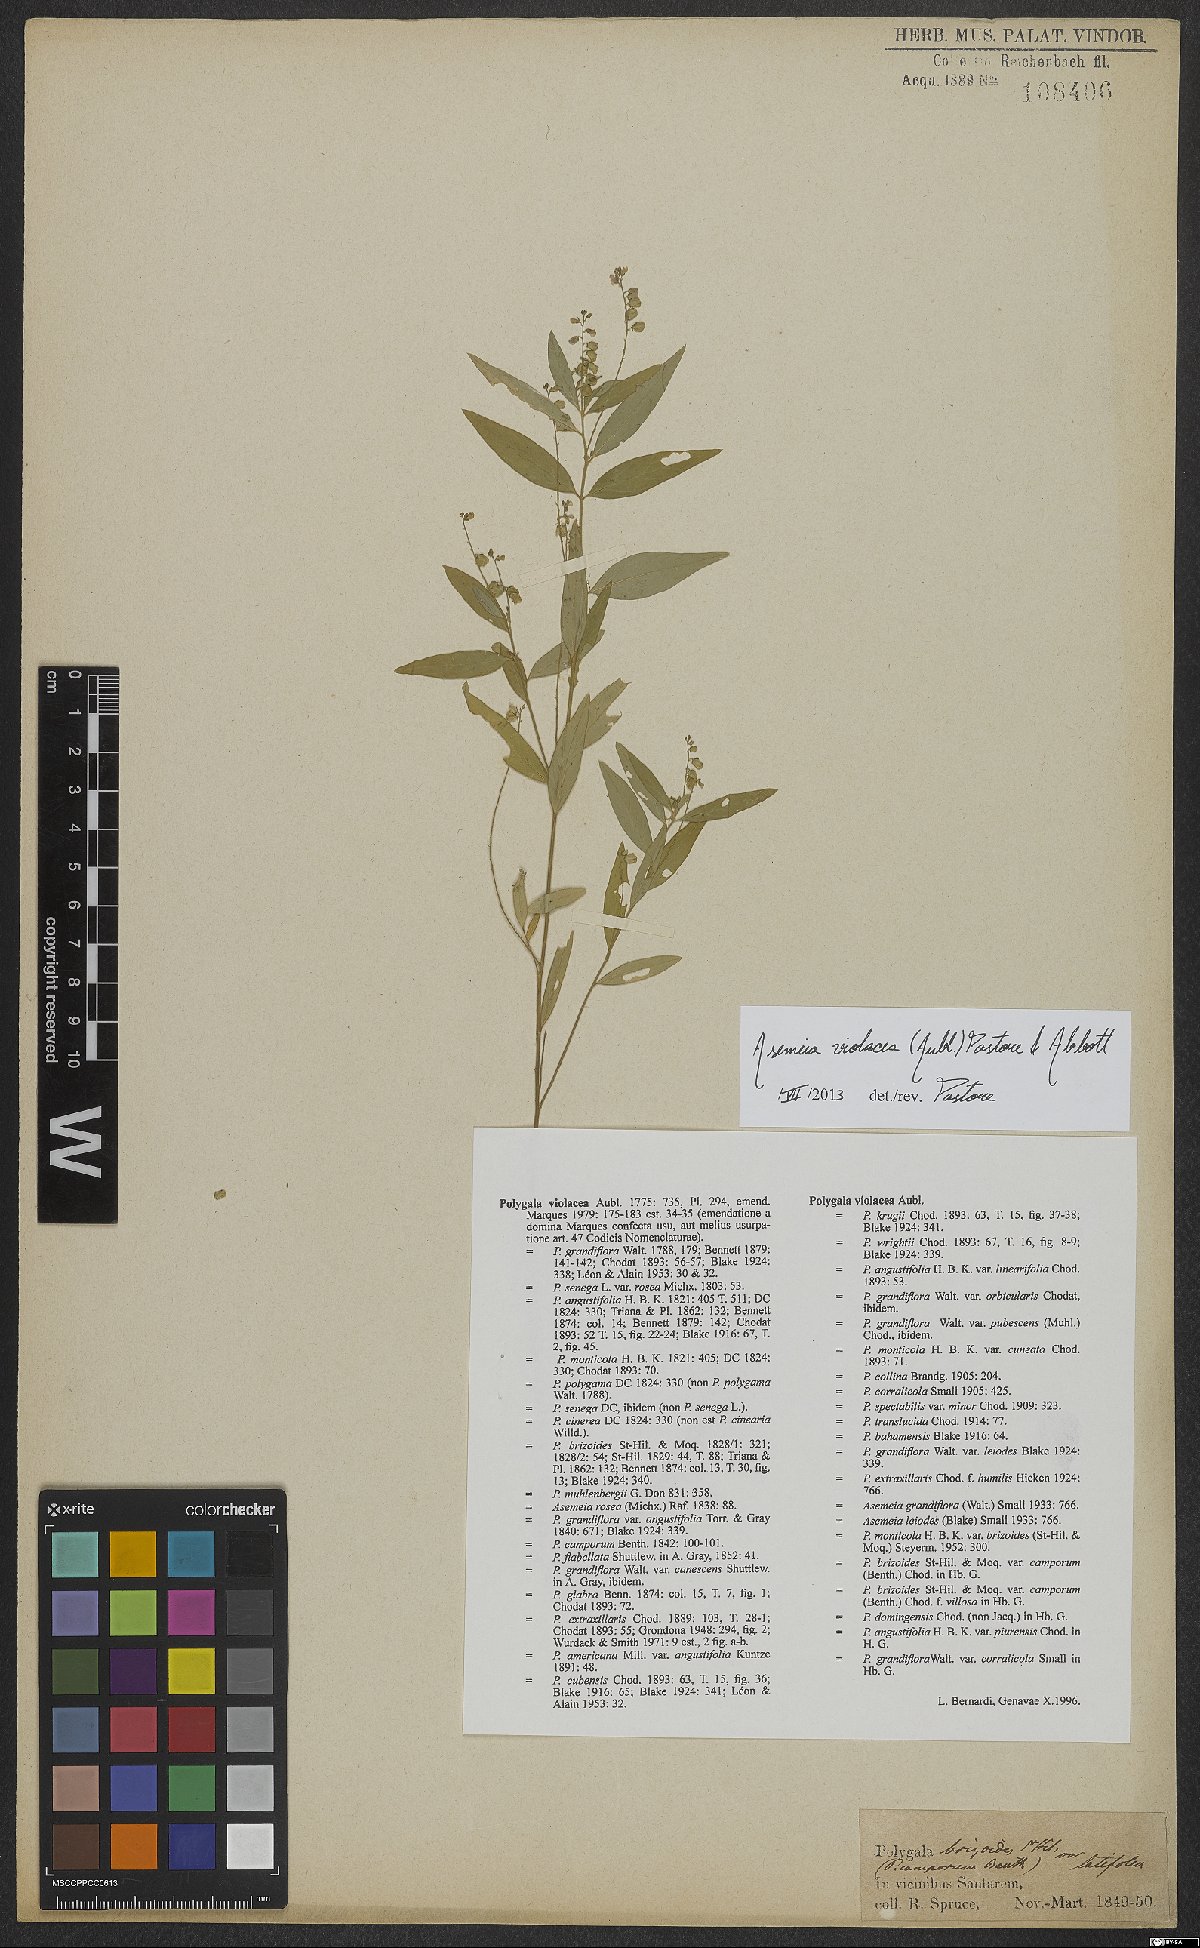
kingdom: Plantae
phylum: Tracheophyta
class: Magnoliopsida
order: Fabales
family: Polygalaceae
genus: Asemeia
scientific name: Asemeia violacea
